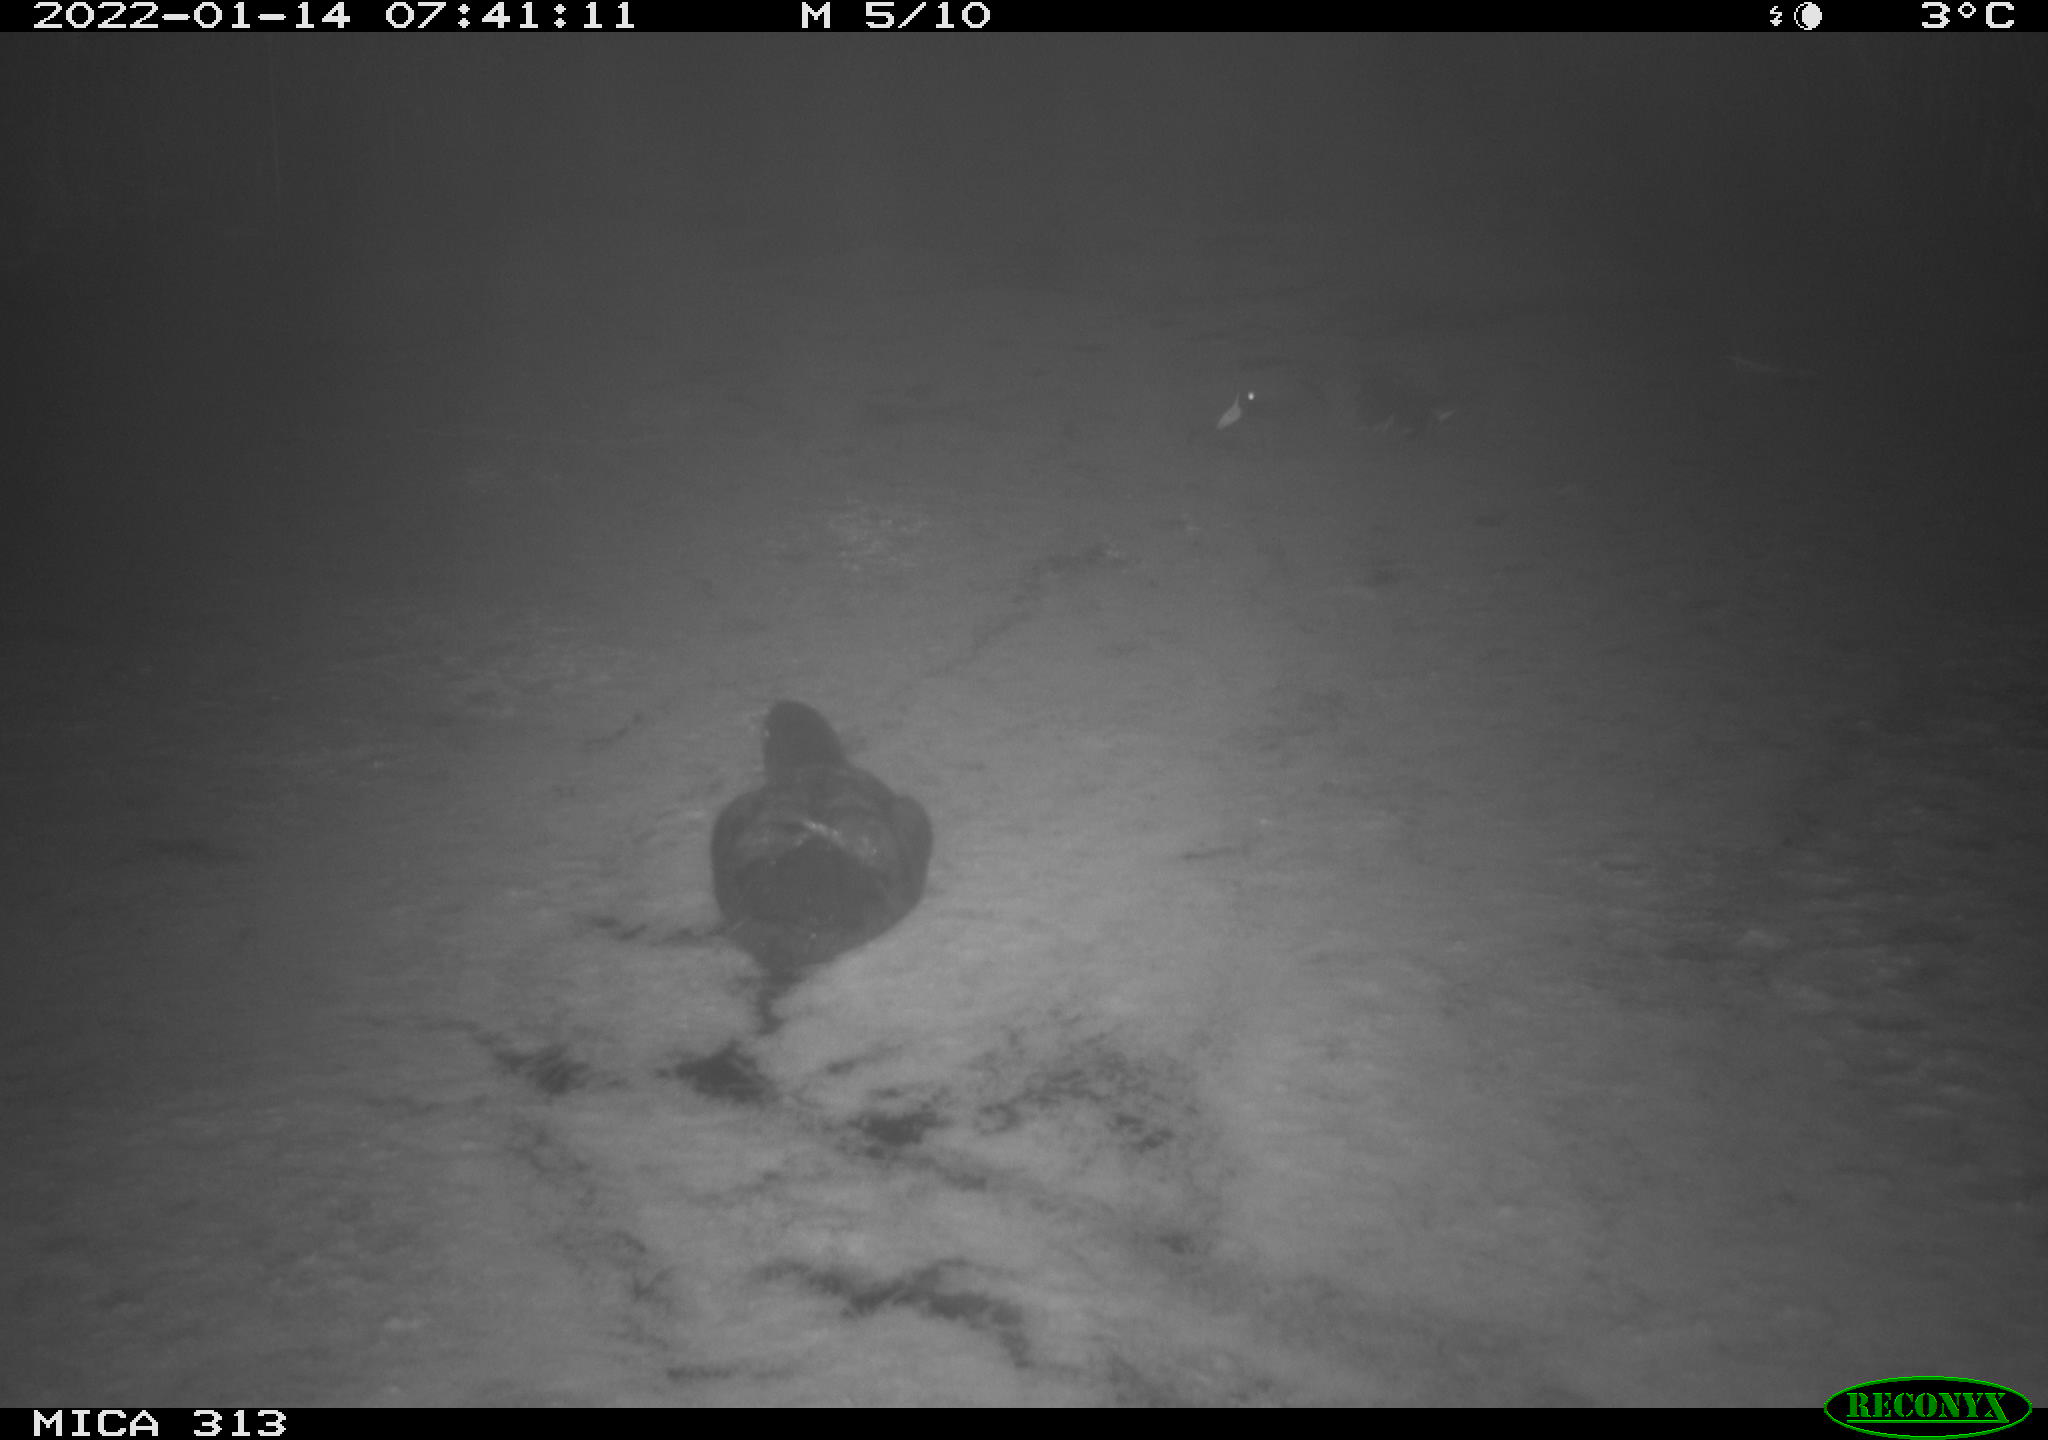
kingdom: Animalia
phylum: Chordata
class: Aves
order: Gruiformes
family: Rallidae
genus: Fulica
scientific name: Fulica atra
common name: Eurasian coot
